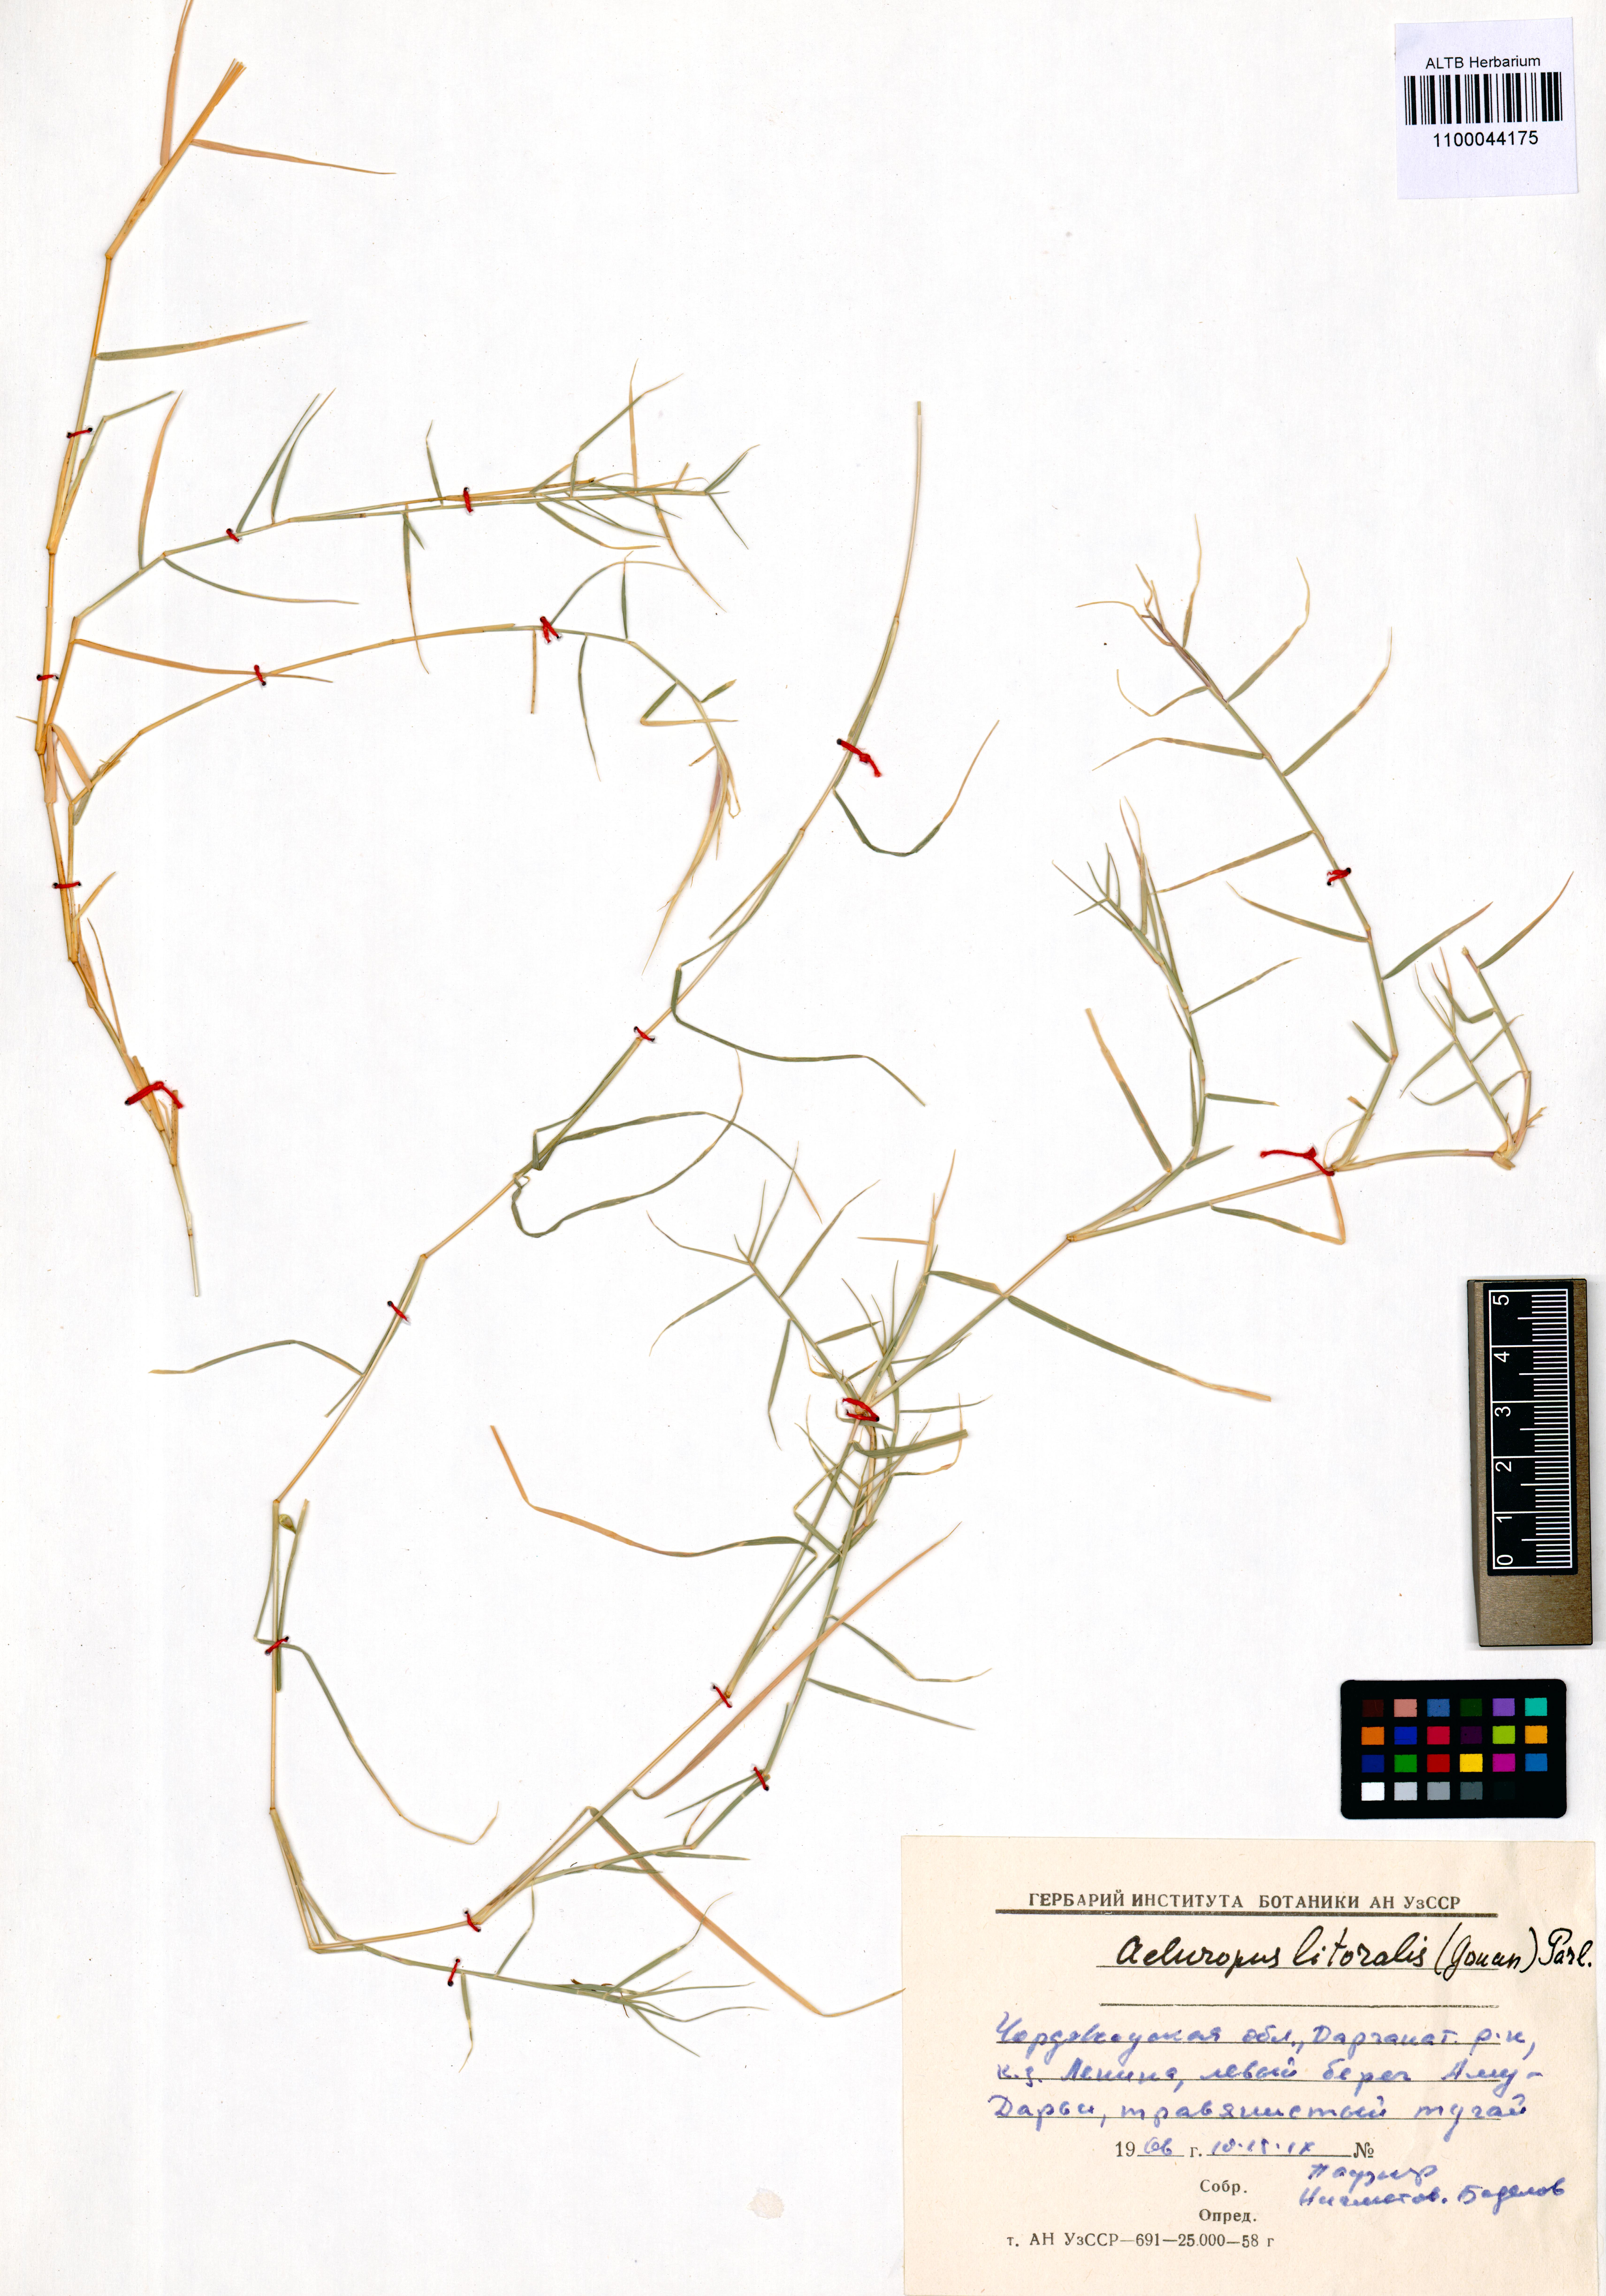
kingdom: Plantae
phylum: Tracheophyta
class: Liliopsida
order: Poales
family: Poaceae
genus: Aeluropus
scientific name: Aeluropus littoralis
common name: Indian walnut
